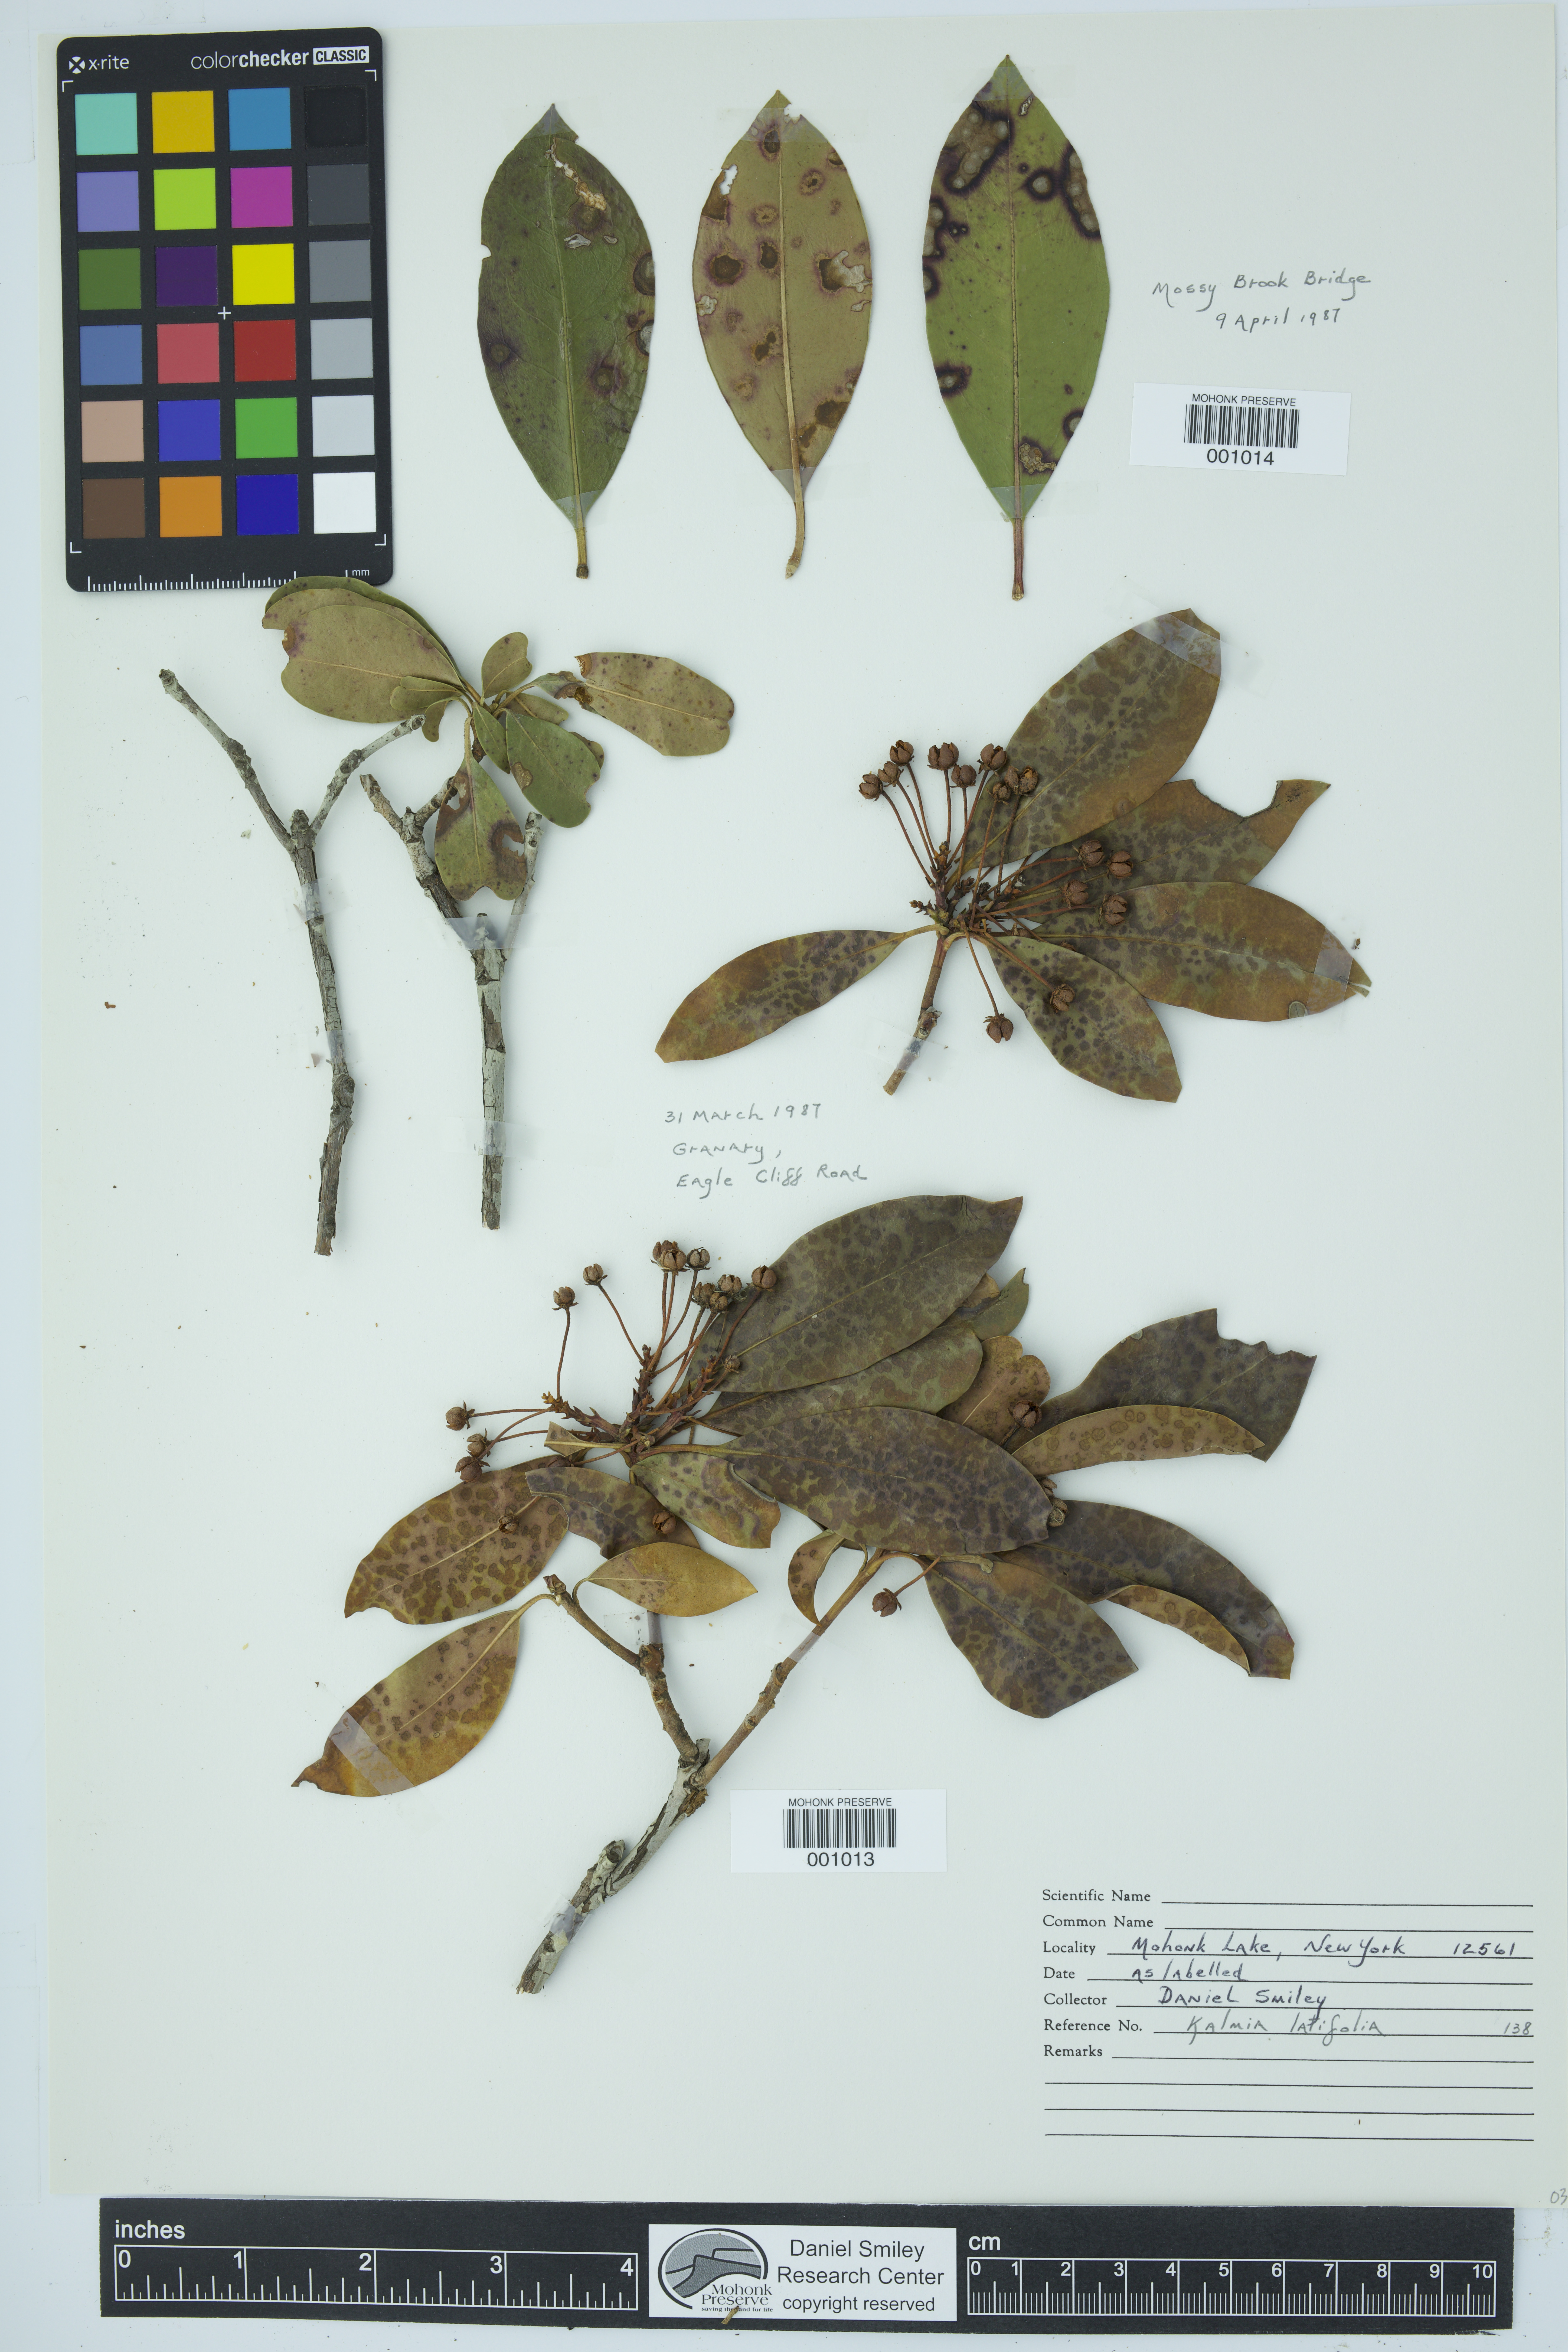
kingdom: Plantae
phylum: Tracheophyta
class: Magnoliopsida
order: Ericales
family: Ericaceae
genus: Kalmia
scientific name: Kalmia latifolia
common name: Mountain-laurel
